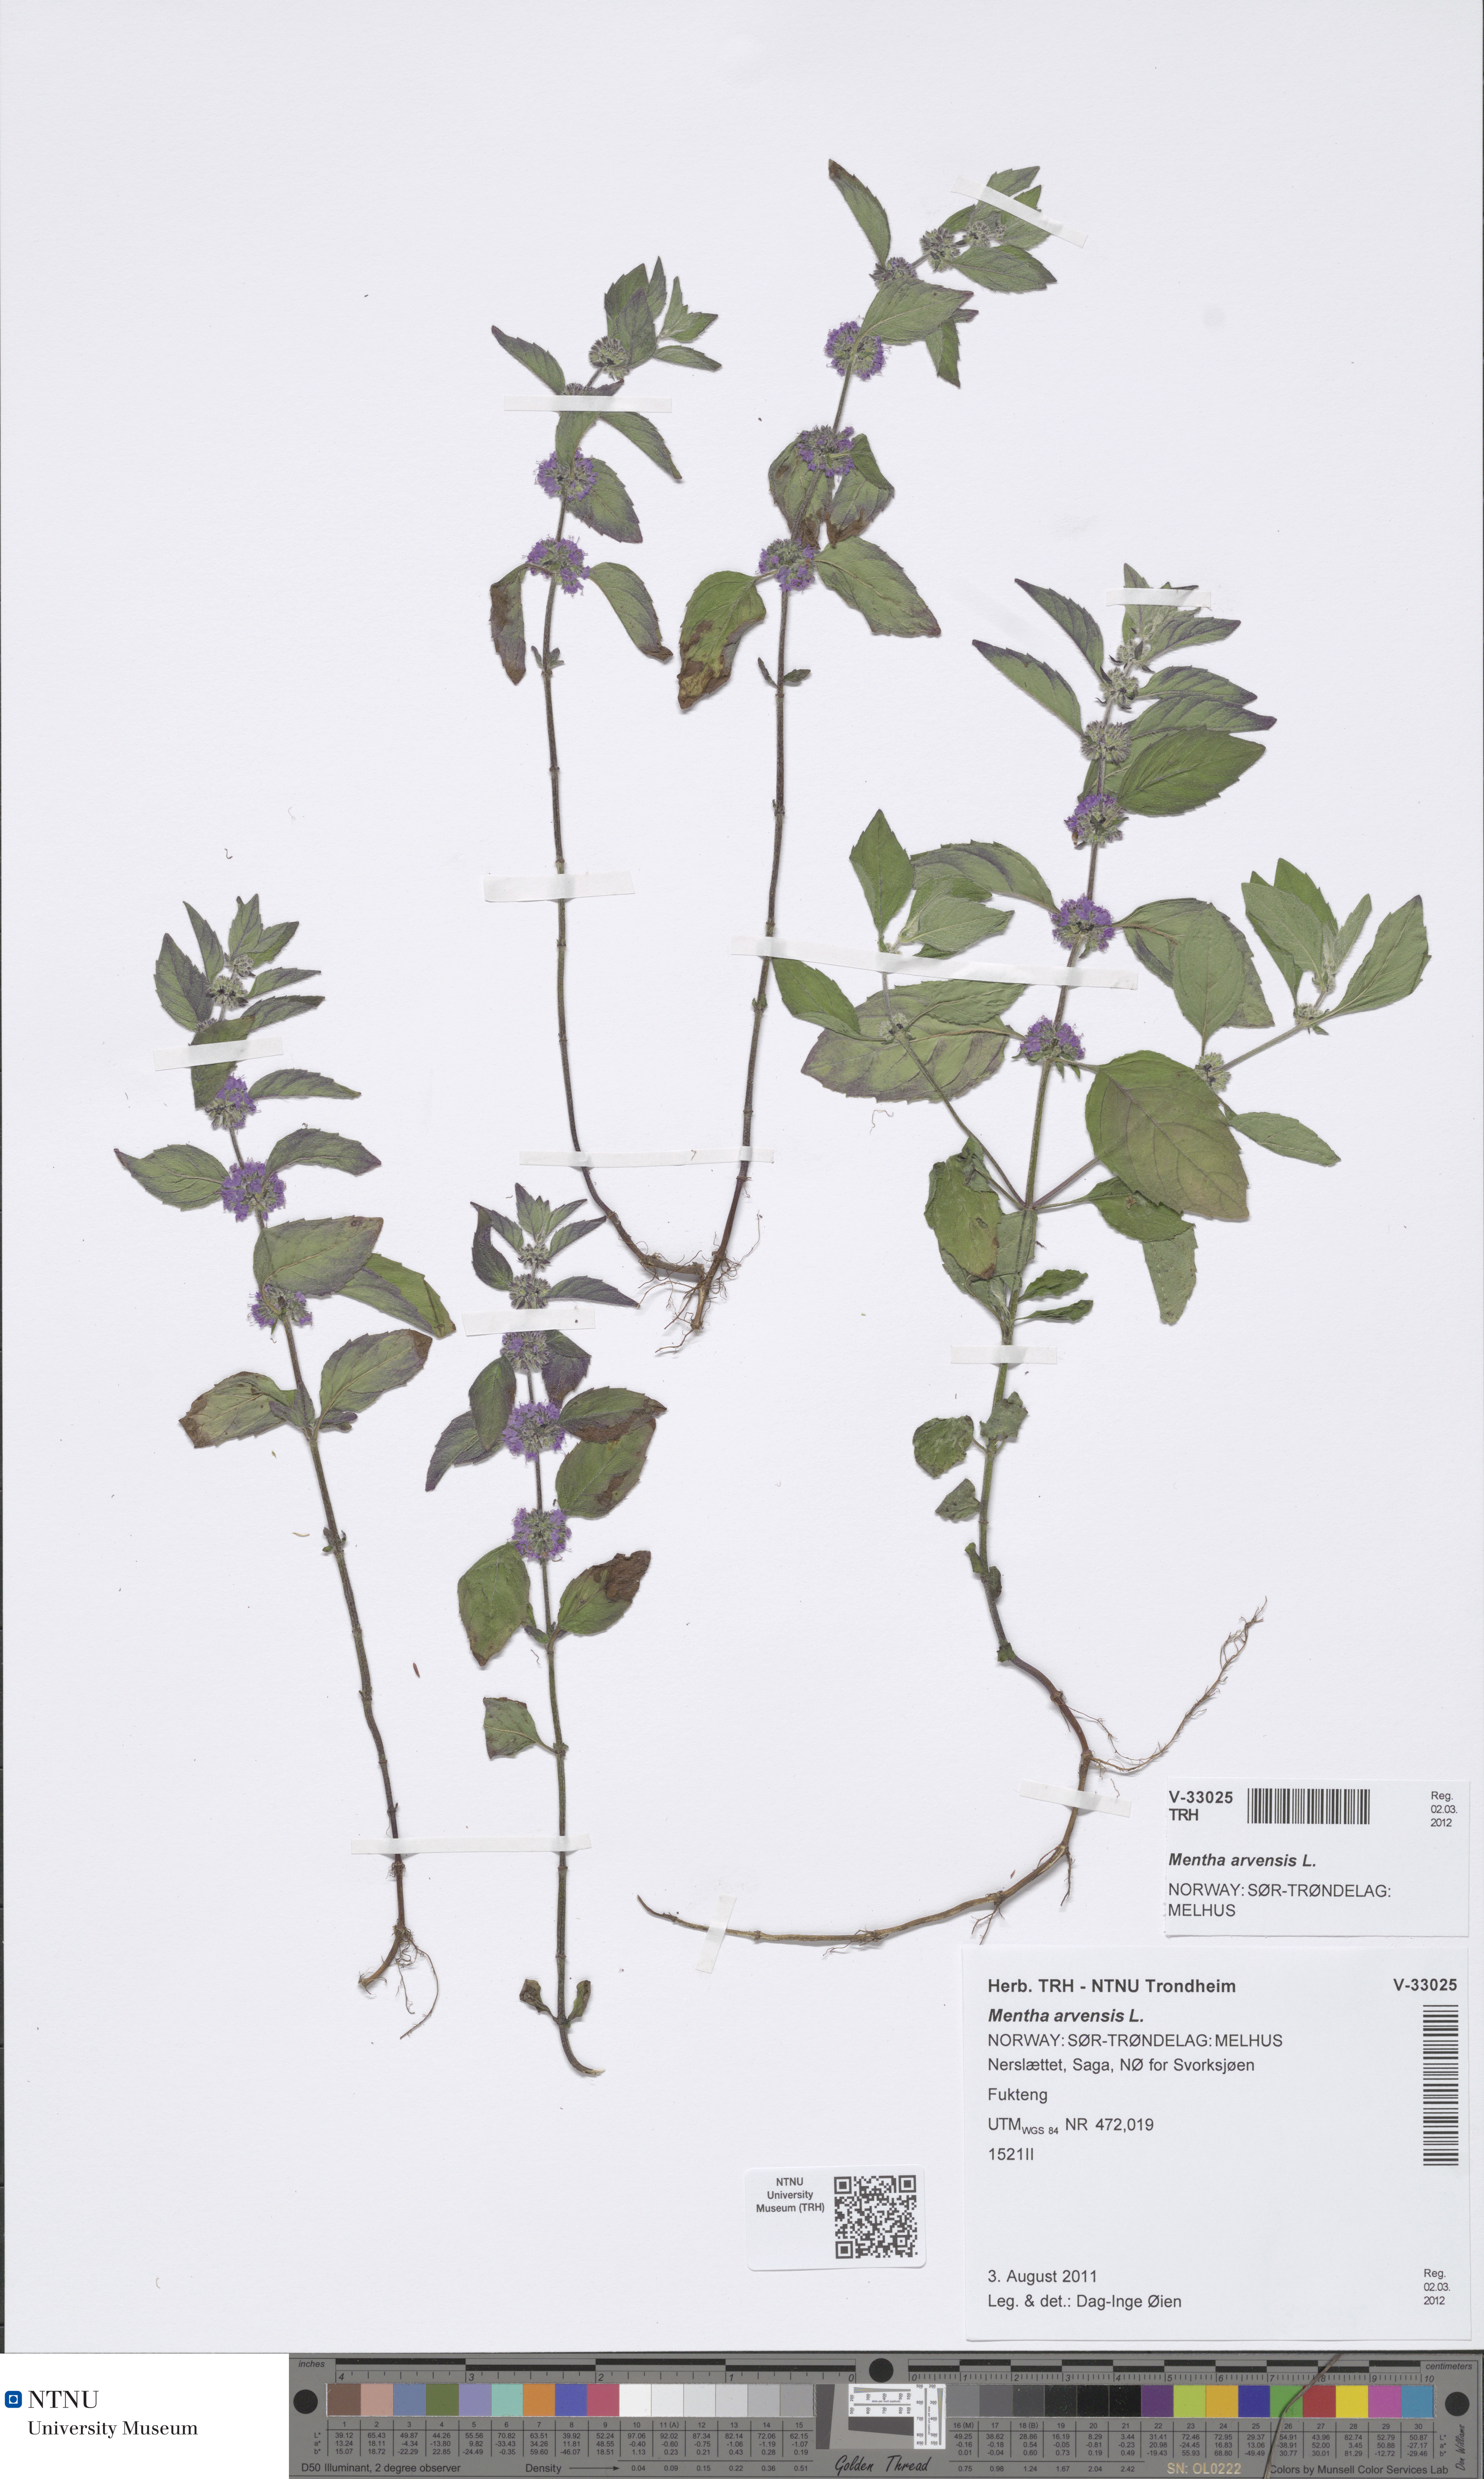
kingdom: Plantae
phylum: Tracheophyta
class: Magnoliopsida
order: Lamiales
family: Lamiaceae
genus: Mentha
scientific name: Mentha arvensis
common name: Corn mint
